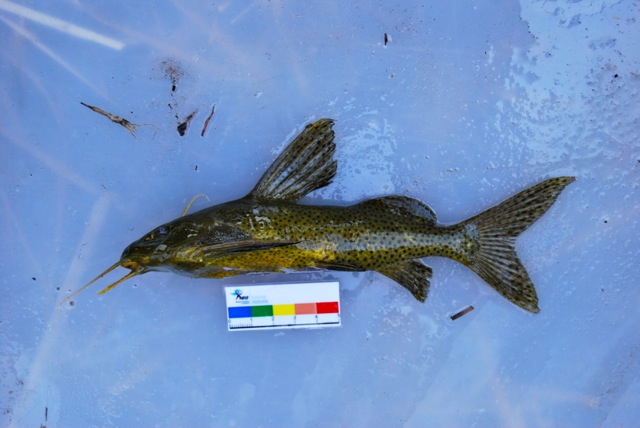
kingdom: Animalia
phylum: Chordata
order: Siluriformes
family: Mochokidae
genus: Synodontis
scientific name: Synodontis nigromaculatus
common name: Blackspotted squeaker
